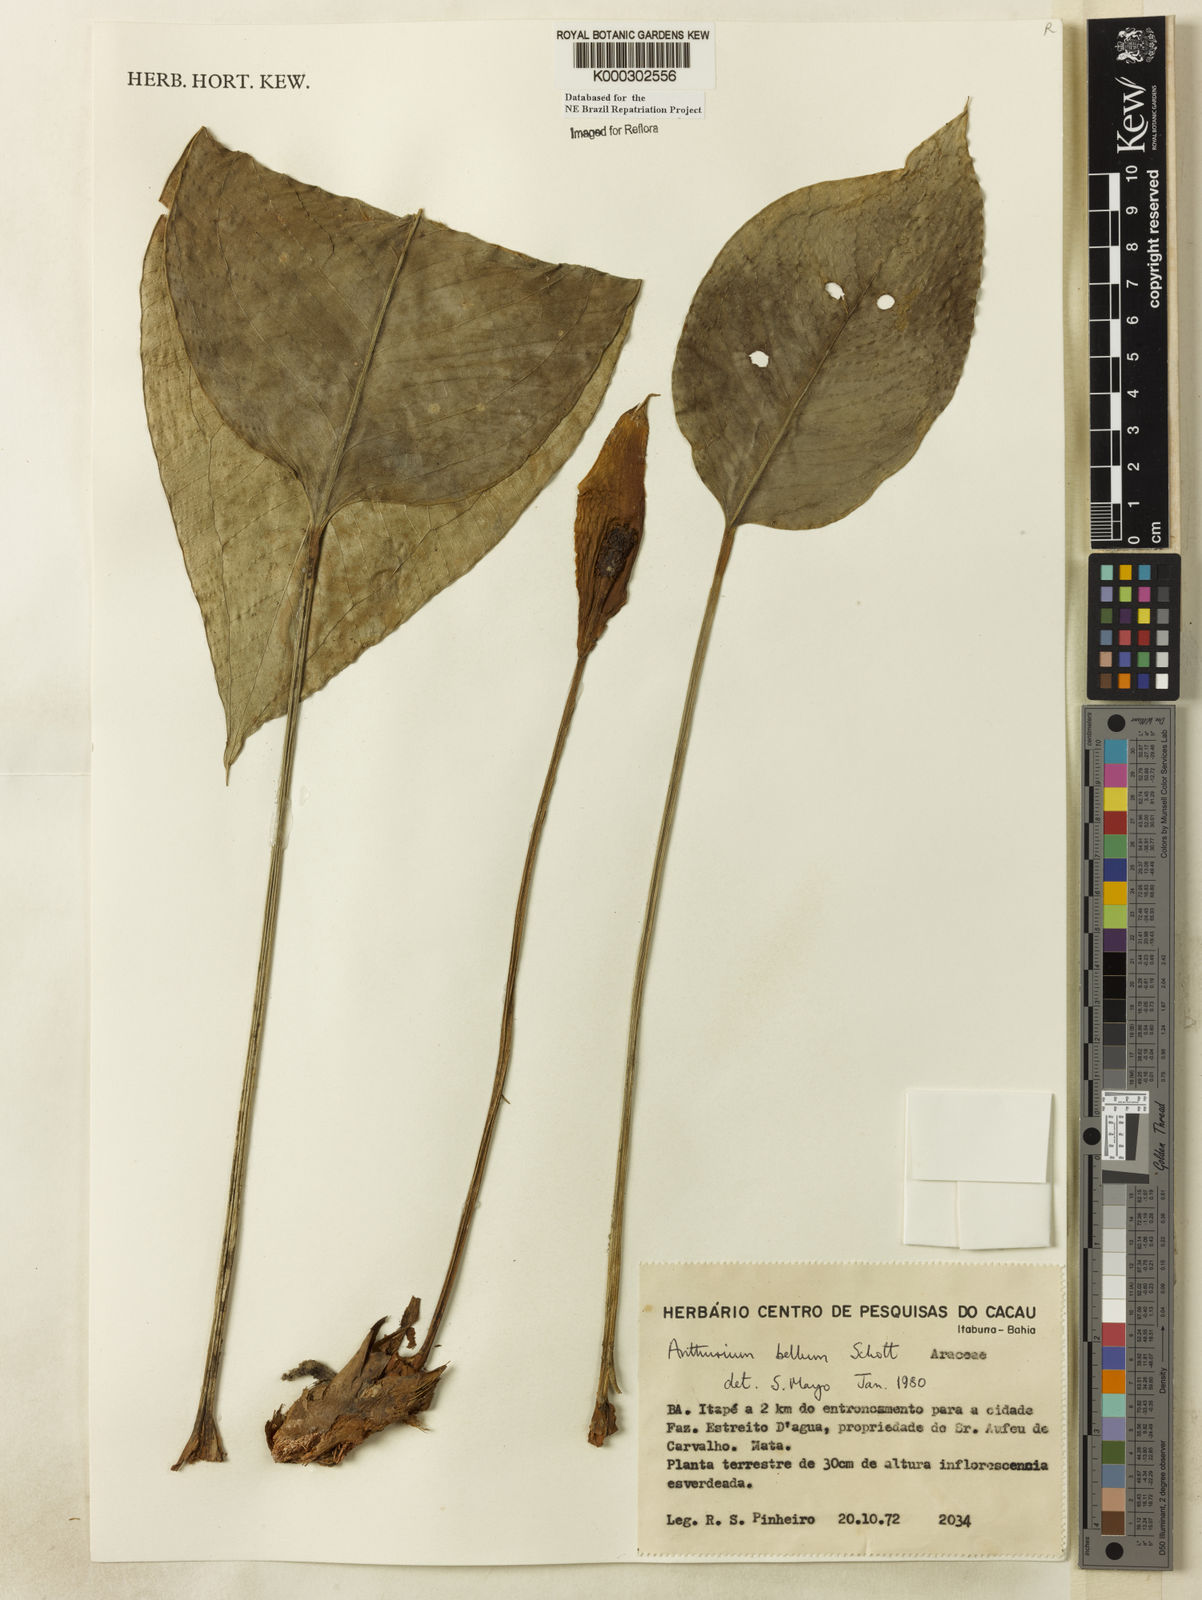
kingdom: Plantae
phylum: Tracheophyta
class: Liliopsida
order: Alismatales
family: Araceae
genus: Anthurium
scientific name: Anthurium bellum
